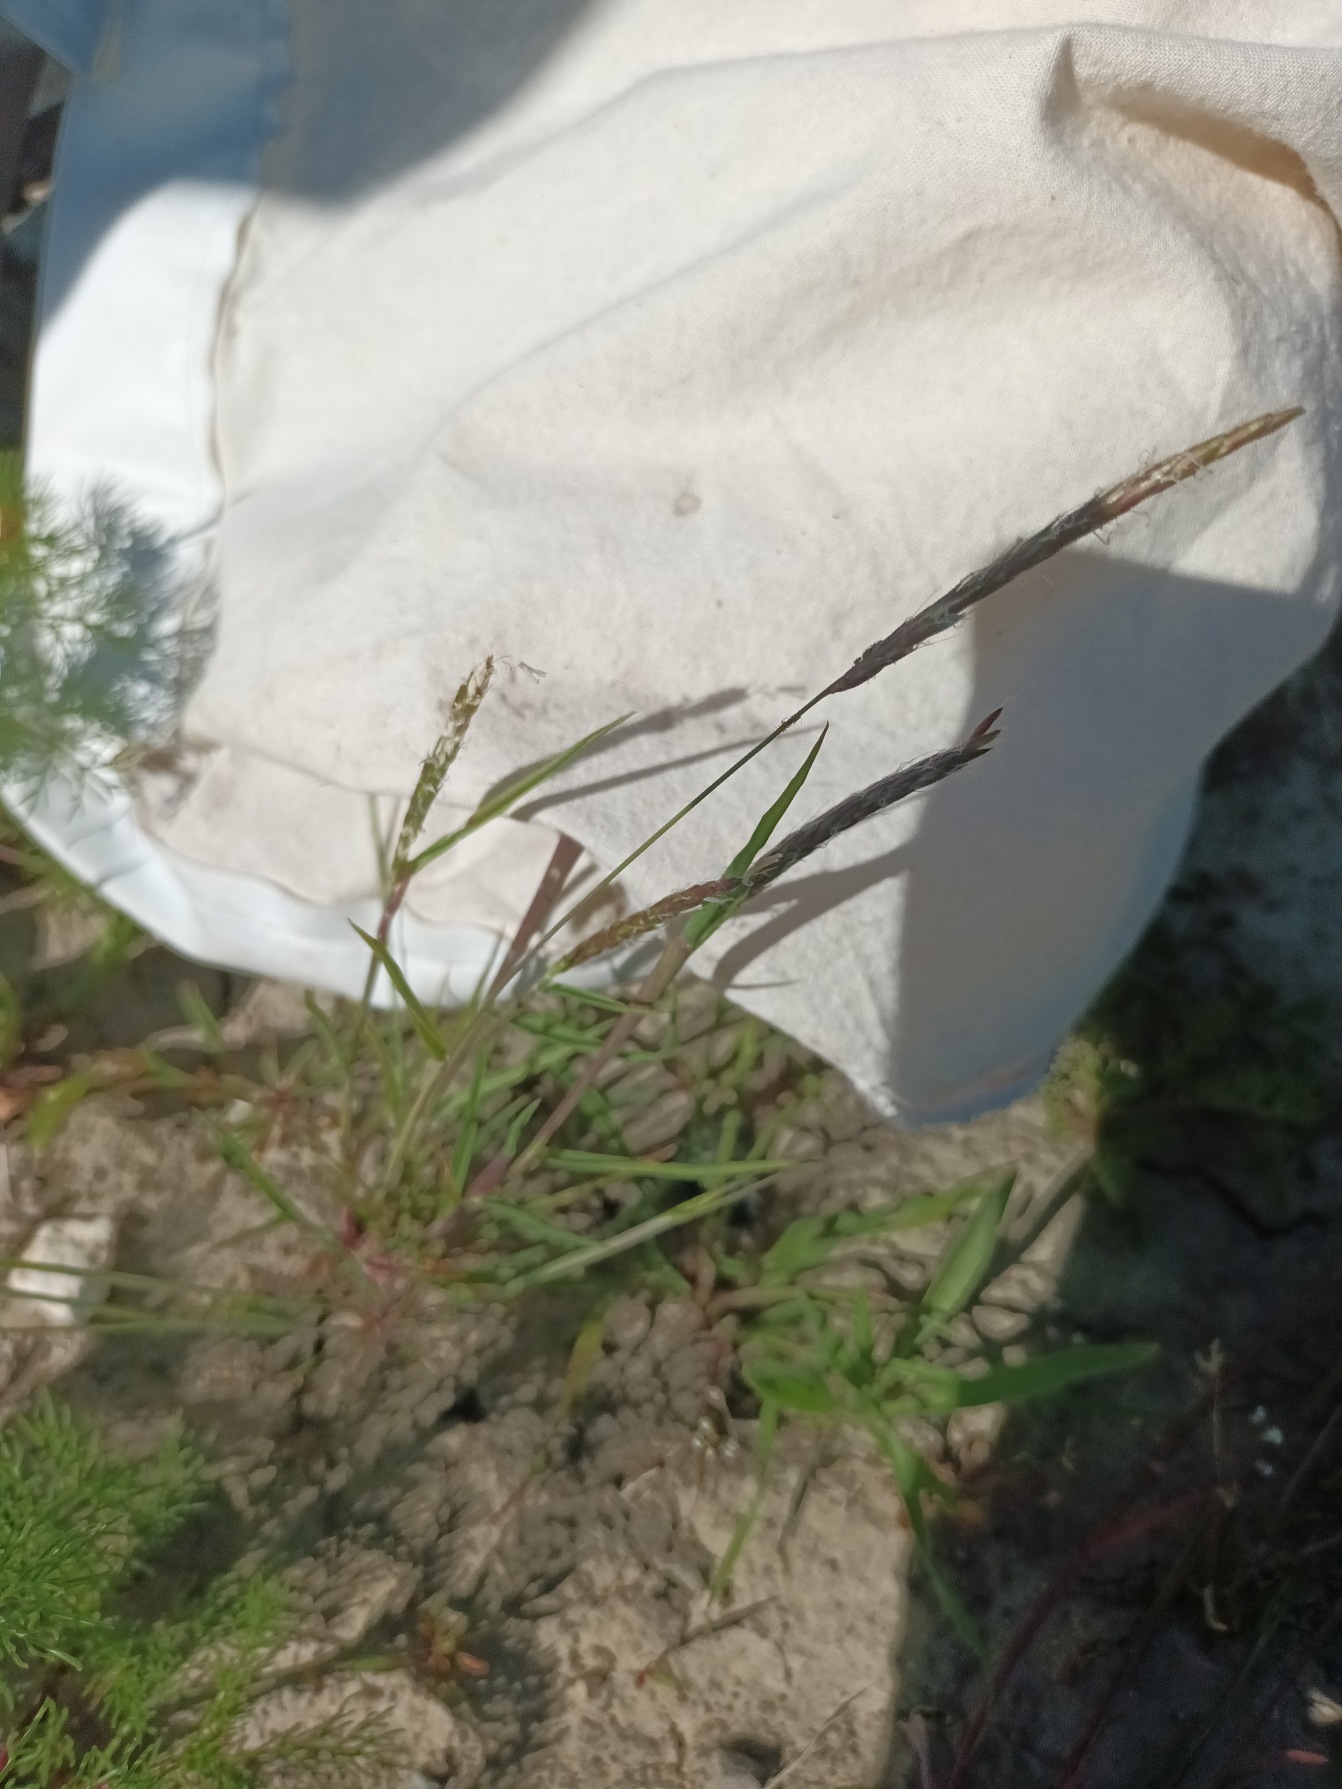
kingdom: Plantae
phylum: Tracheophyta
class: Liliopsida
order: Poales
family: Poaceae
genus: Alopecurus
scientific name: Alopecurus myosuroides
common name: Ager-rævehale
